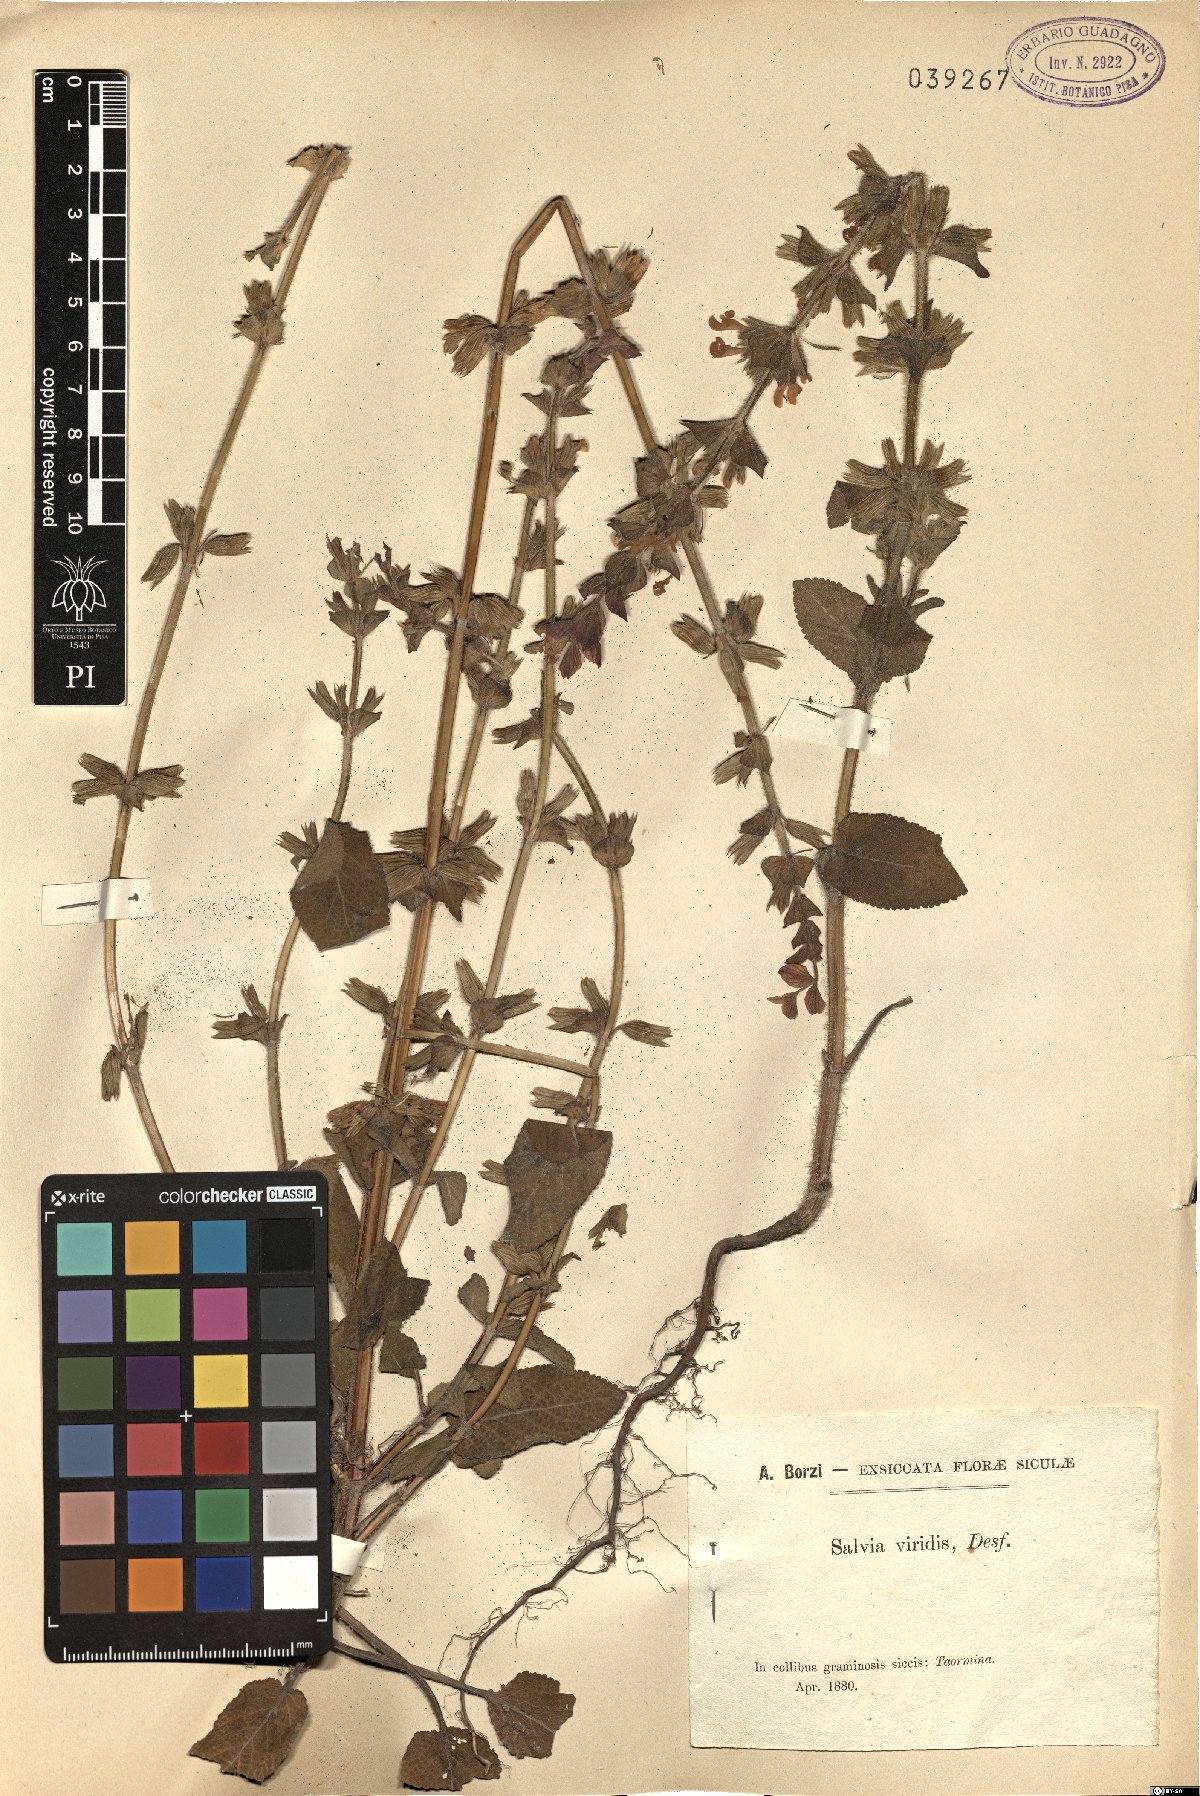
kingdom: Plantae
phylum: Tracheophyta
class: Magnoliopsida
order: Lamiales
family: Lamiaceae
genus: Salvia
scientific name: Salvia viridis
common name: Annual clary
